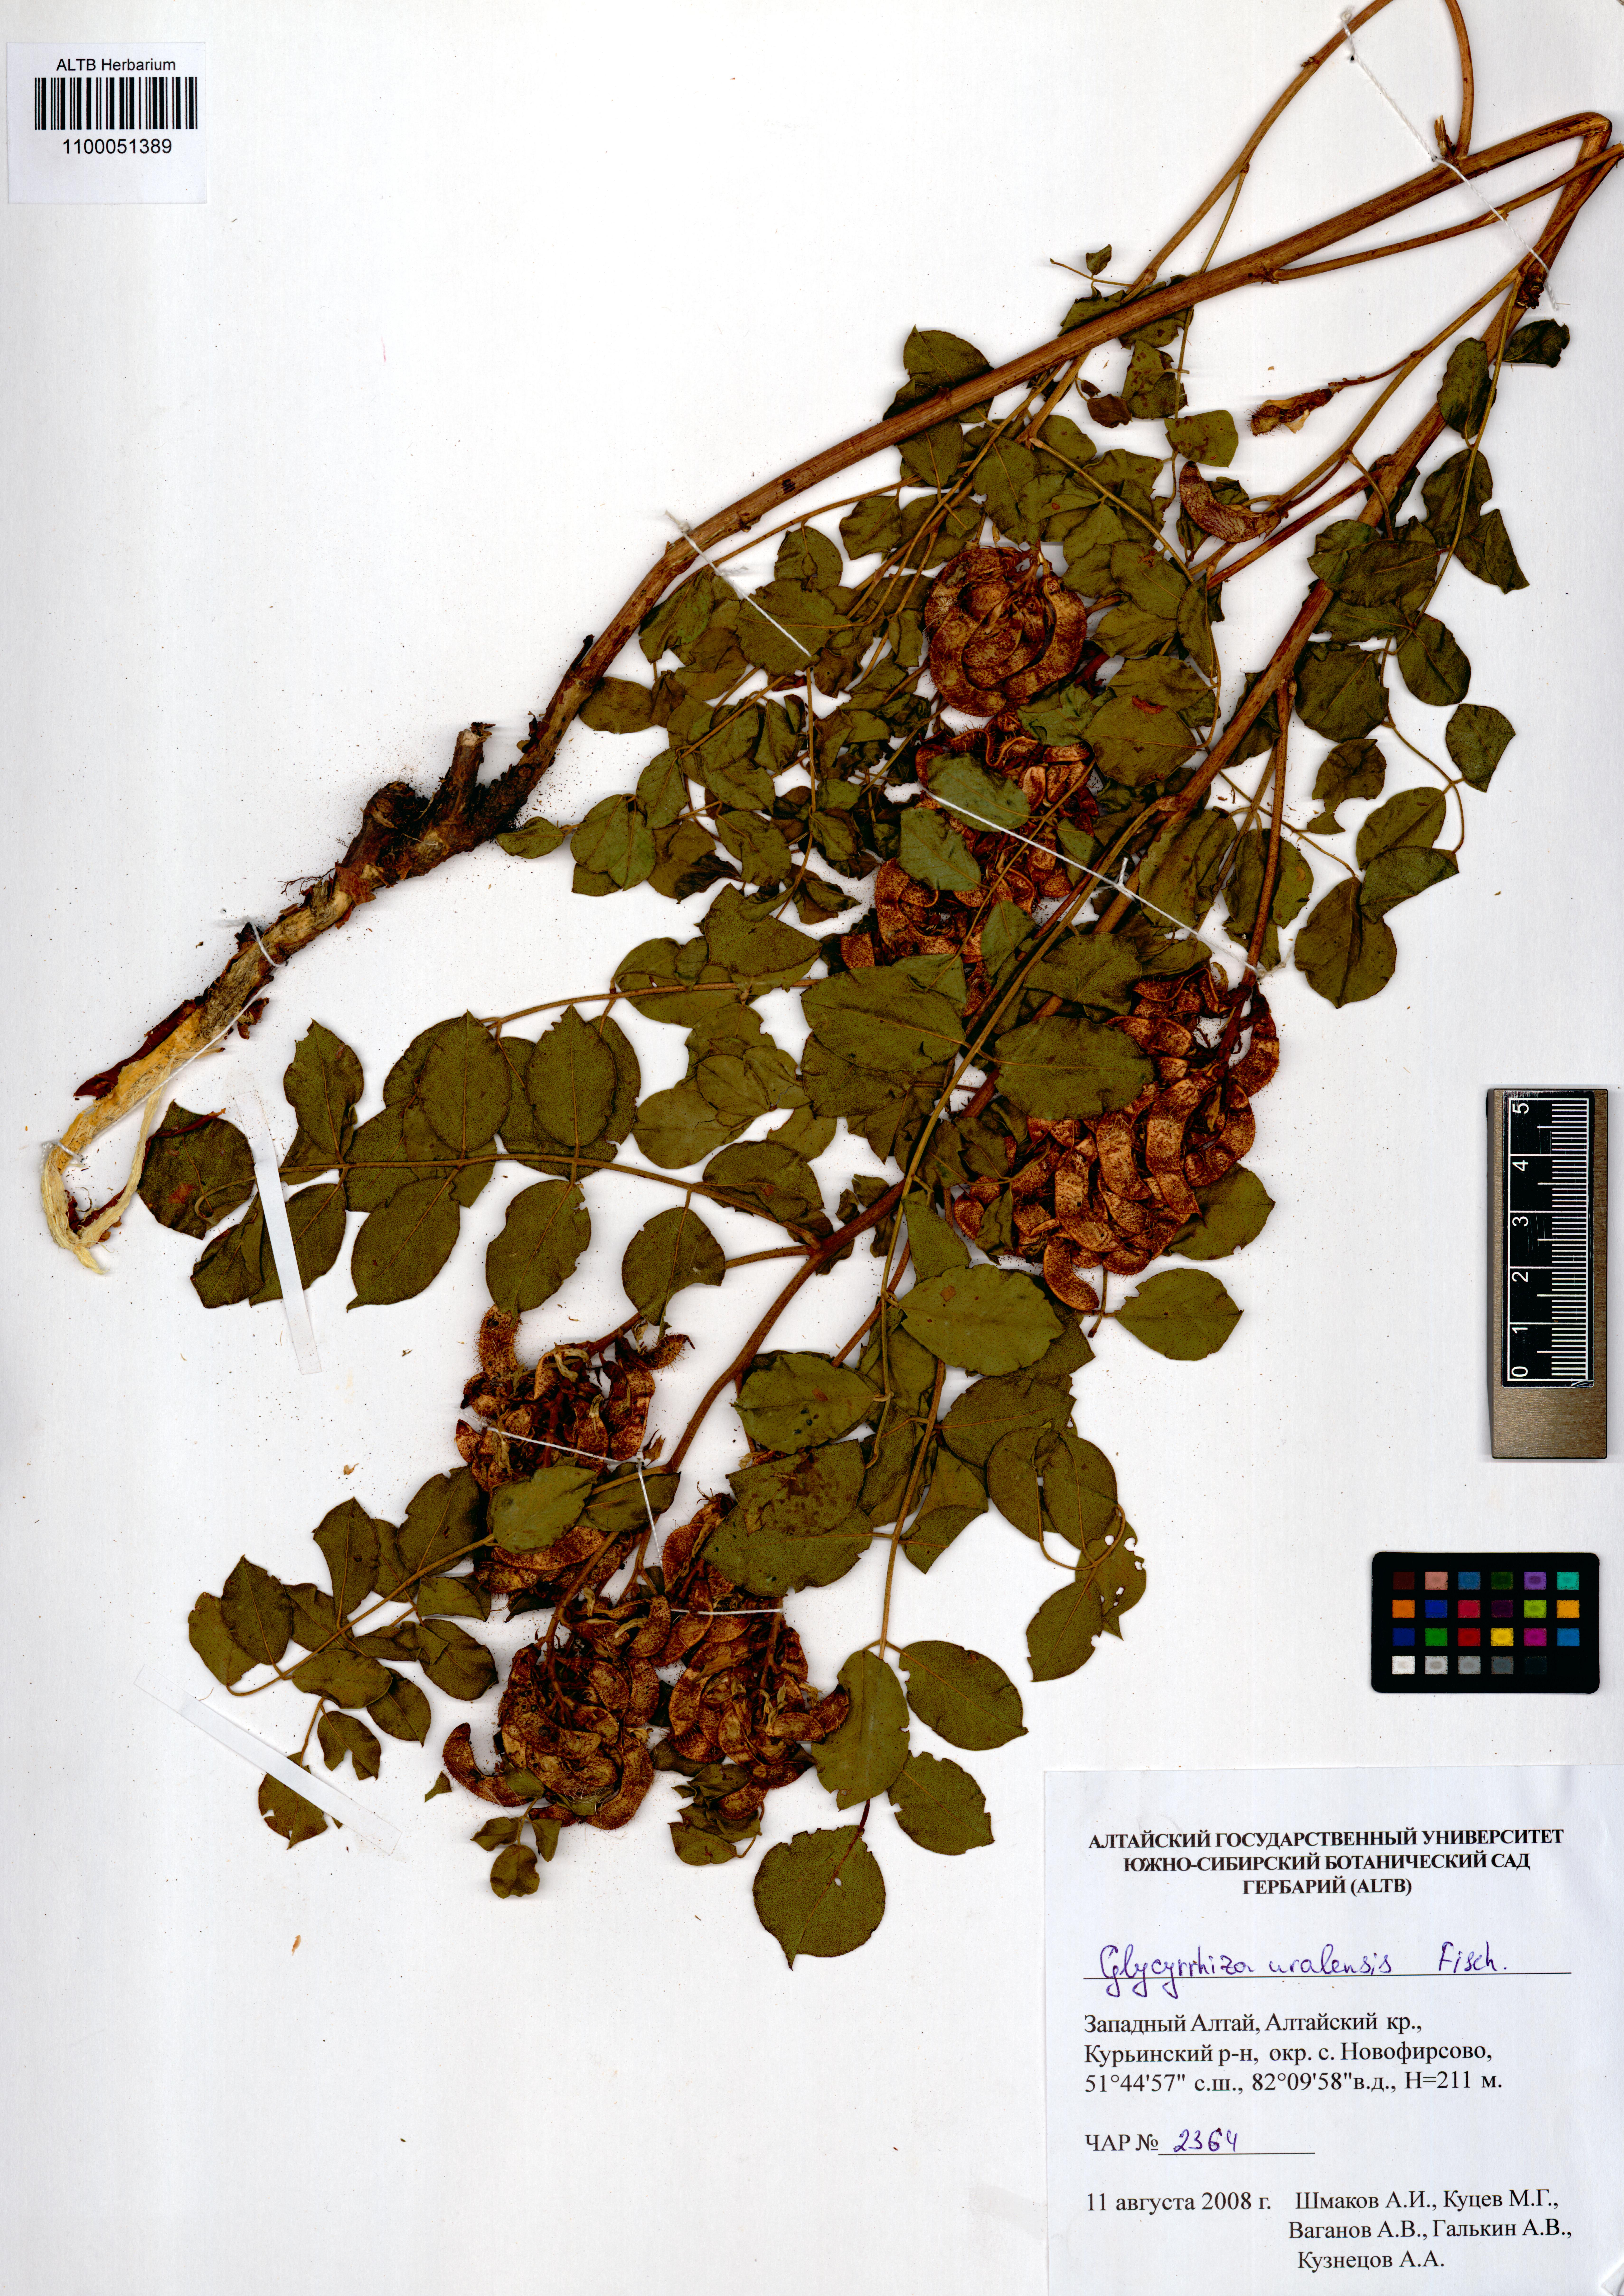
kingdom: Plantae
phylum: Tracheophyta
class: Magnoliopsida
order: Fabales
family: Fabaceae
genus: Glycyrrhiza
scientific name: Glycyrrhiza uralensis
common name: Chinese licorice
